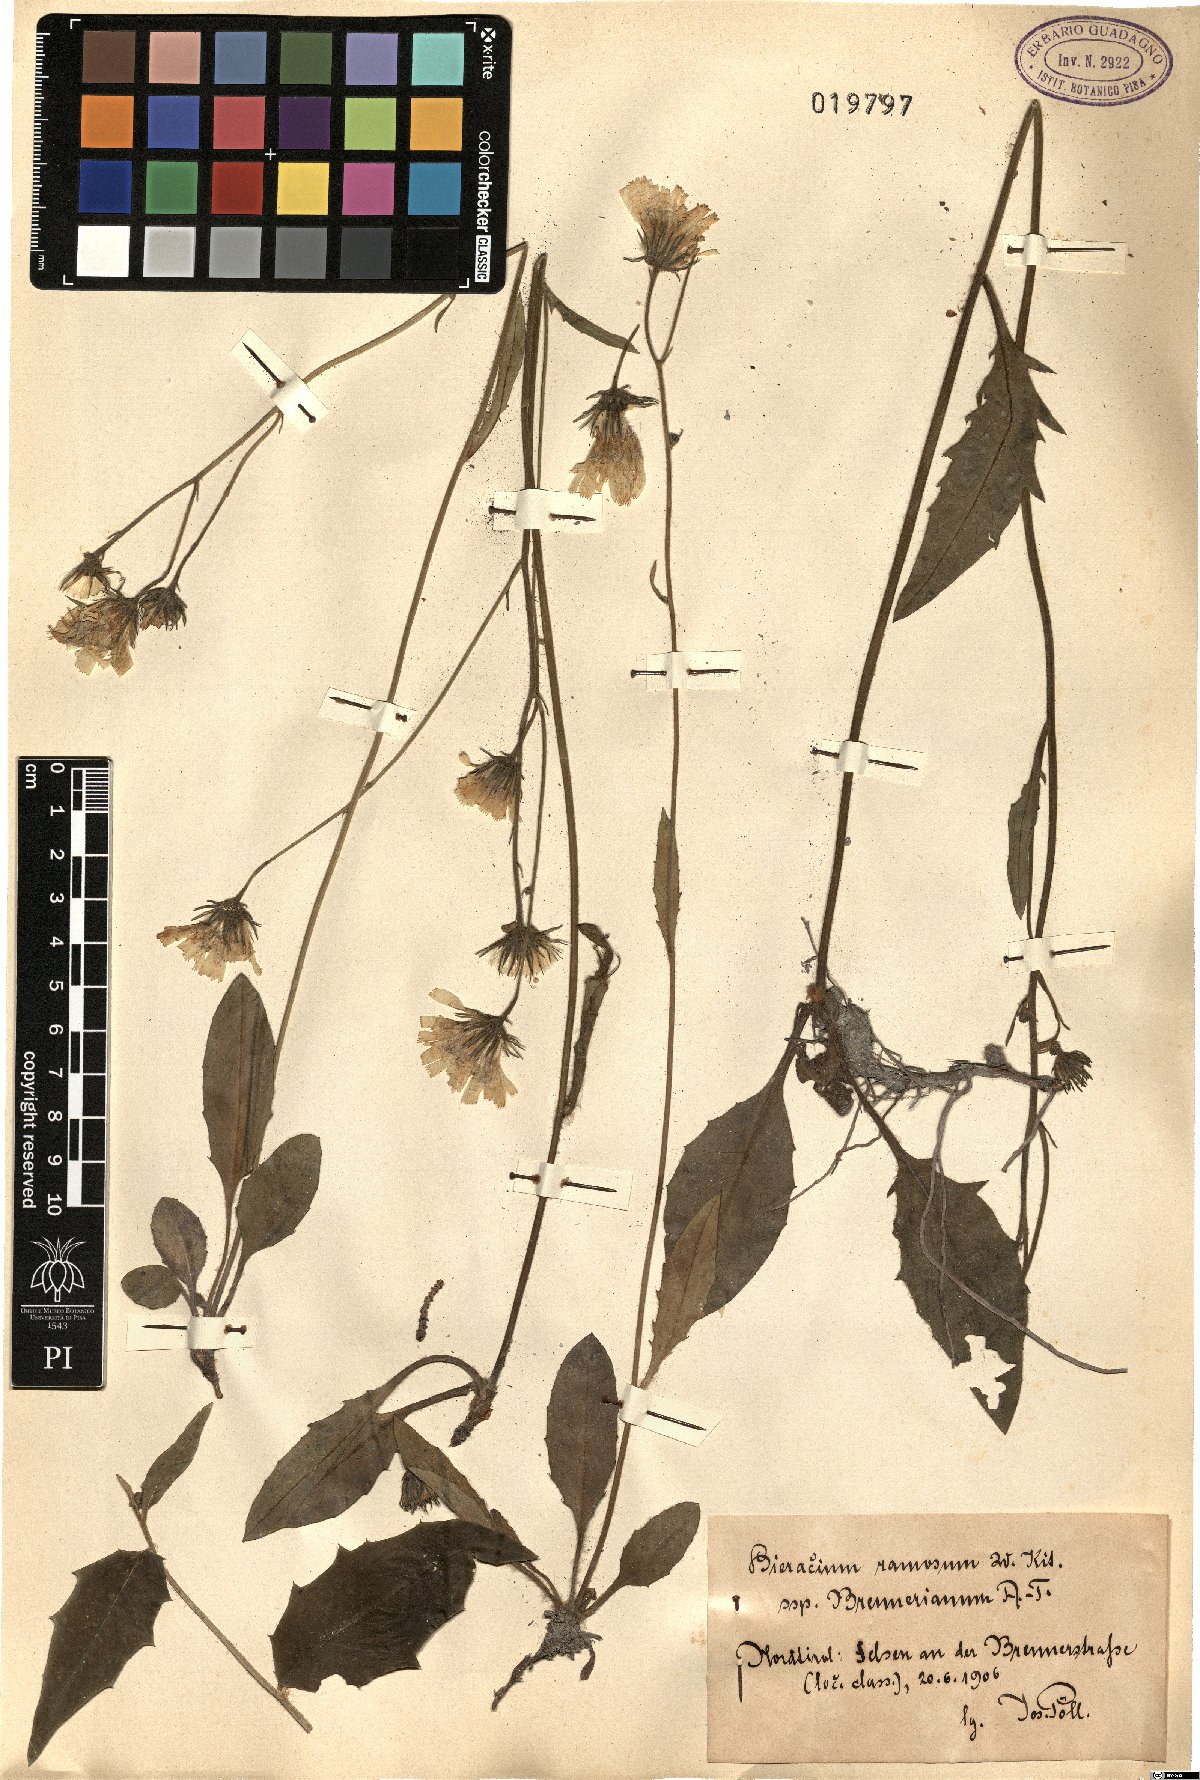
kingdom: Plantae
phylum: Tracheophyta
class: Magnoliopsida
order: Asterales
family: Asteraceae
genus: Hieracium
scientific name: Hieracium caesium
